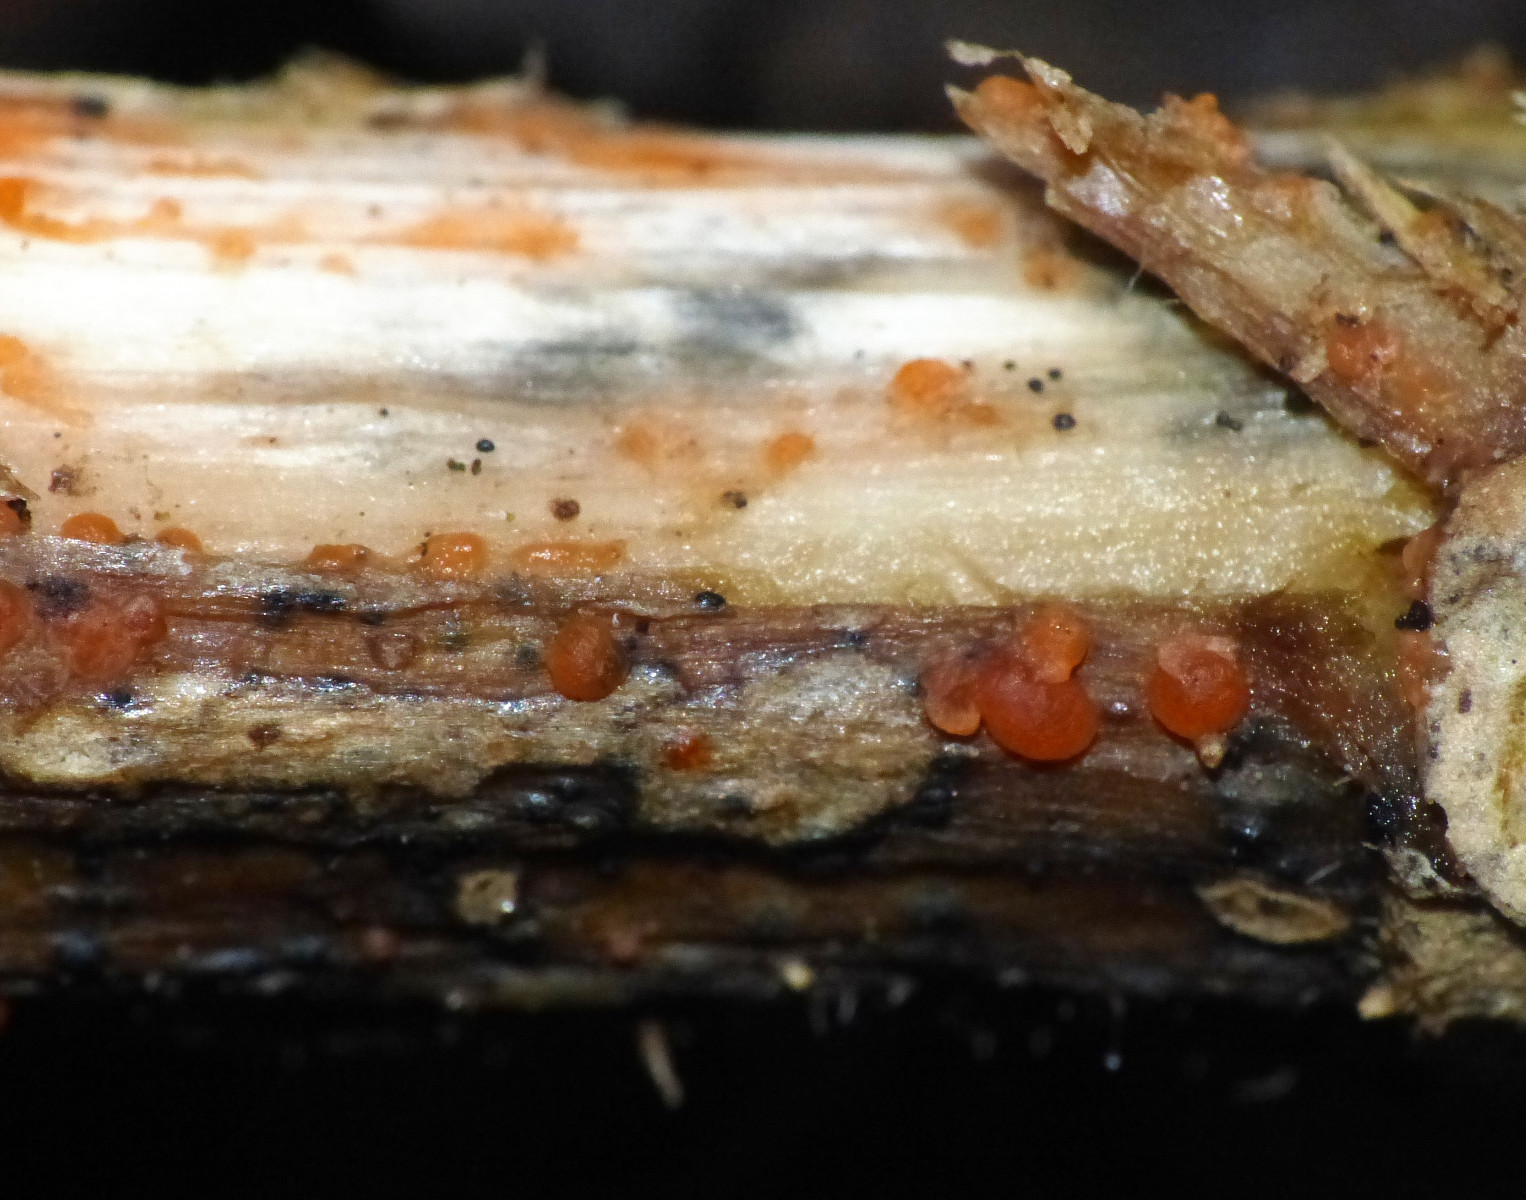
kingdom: Fungi
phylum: Ascomycota
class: Leotiomycetes
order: Helotiales
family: Calloriaceae
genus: Calloria
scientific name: Calloria urticae
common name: nælde-orangeskive
